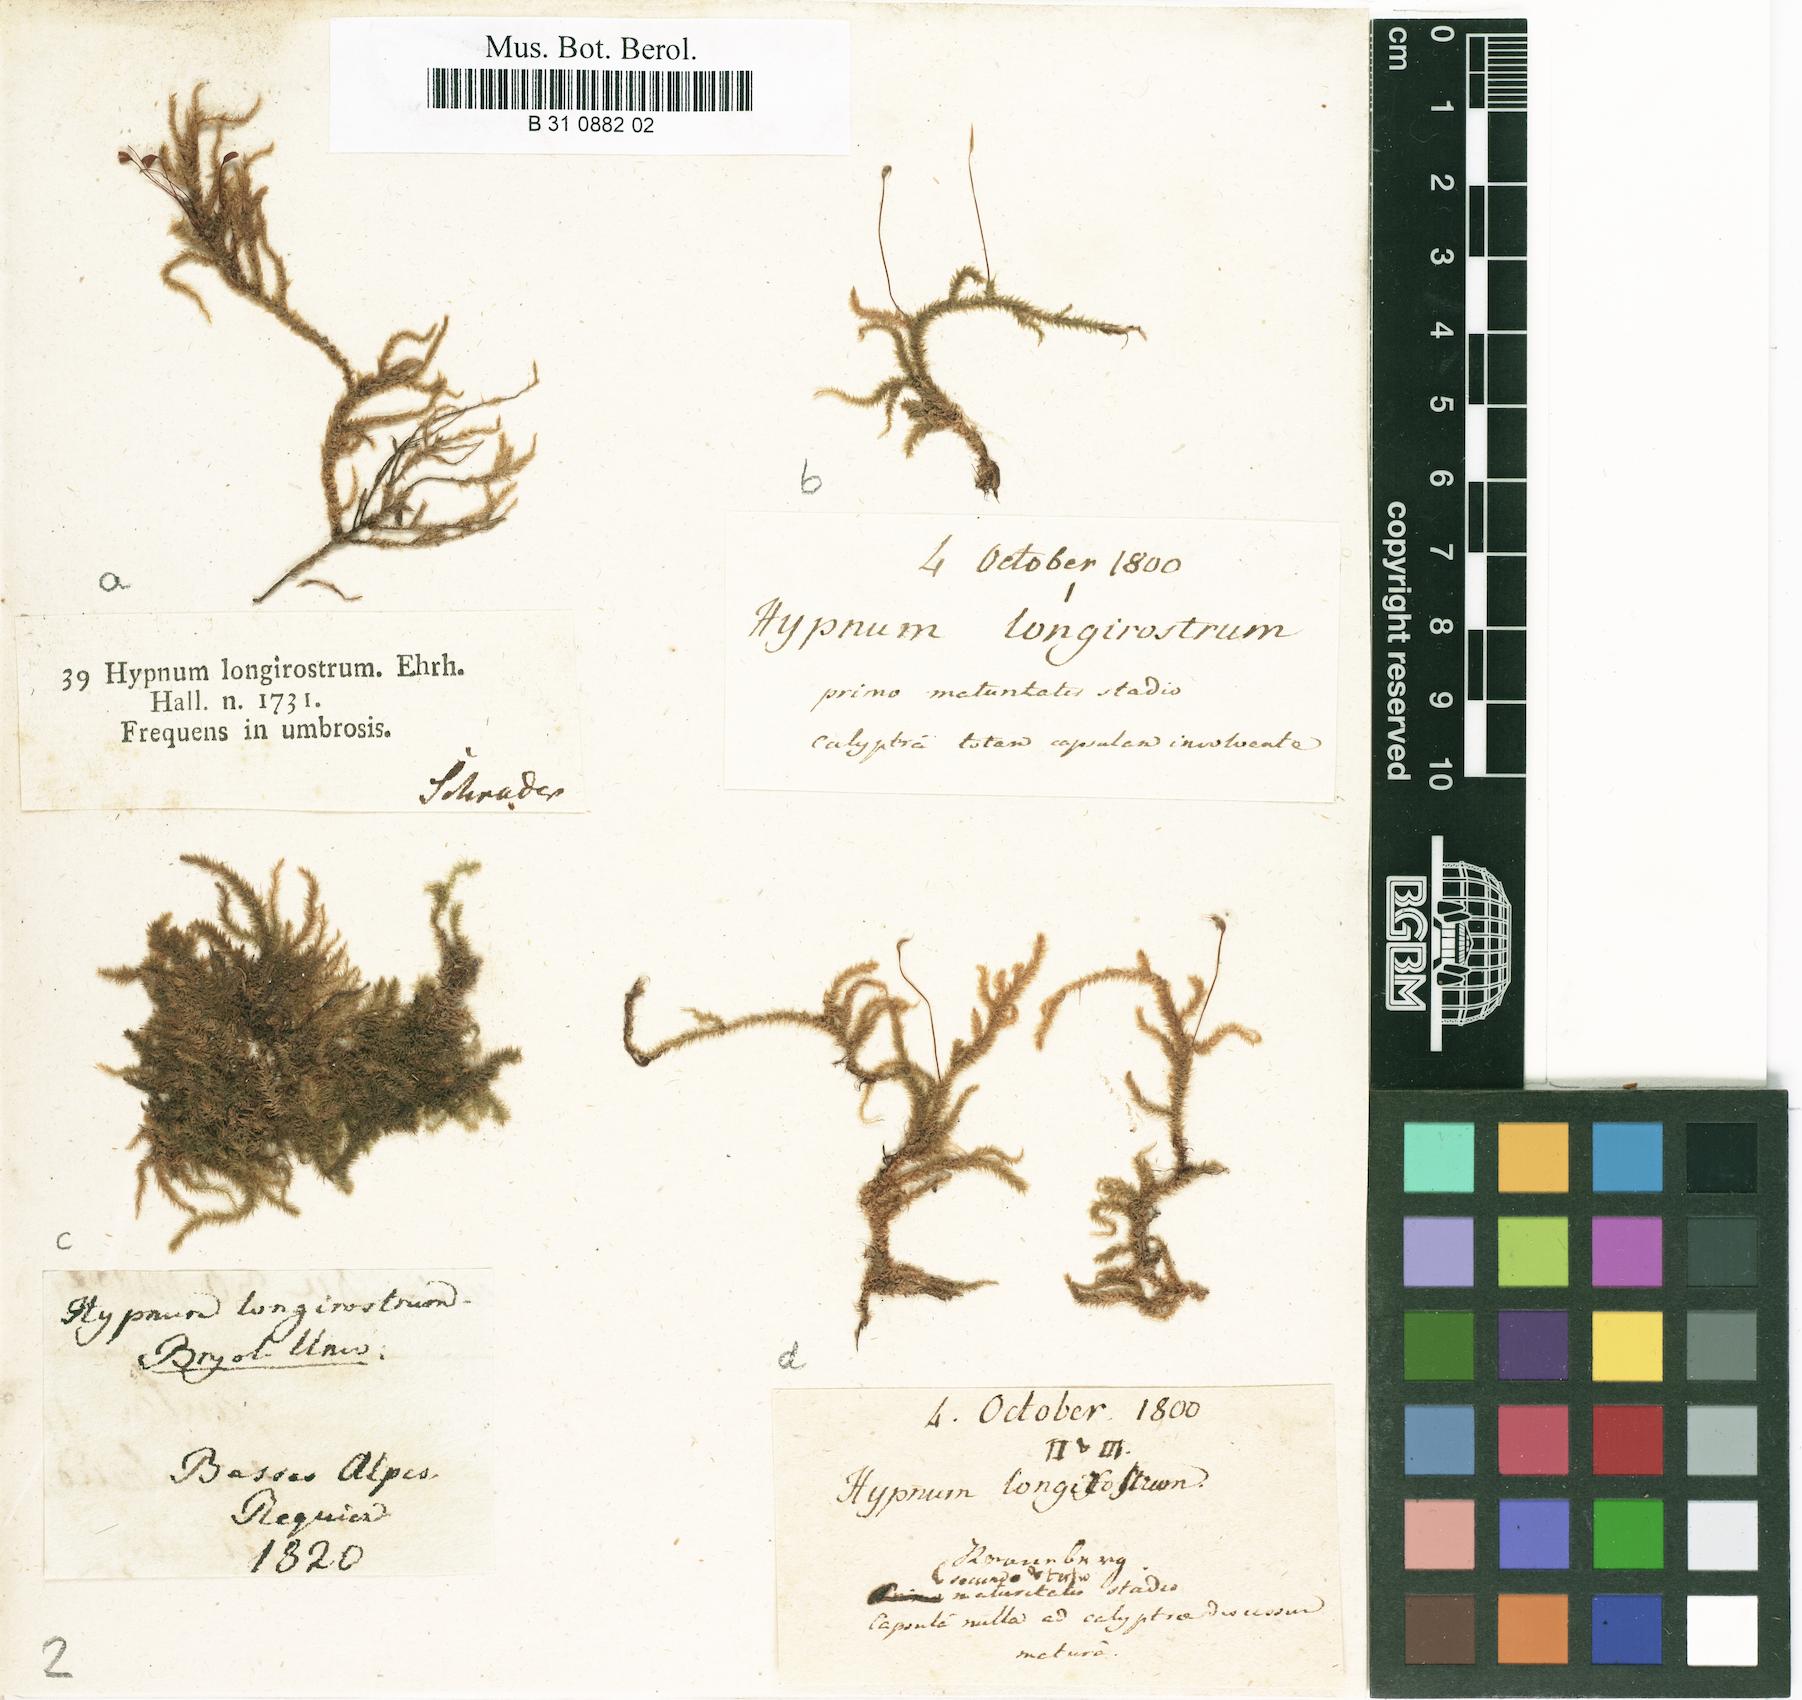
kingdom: Plantae
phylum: Bryophyta
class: Bryopsida
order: Hypnales
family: Brachytheciaceae
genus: Eurhynchium
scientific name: Eurhynchium striatum
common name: Common striated feather-moss
